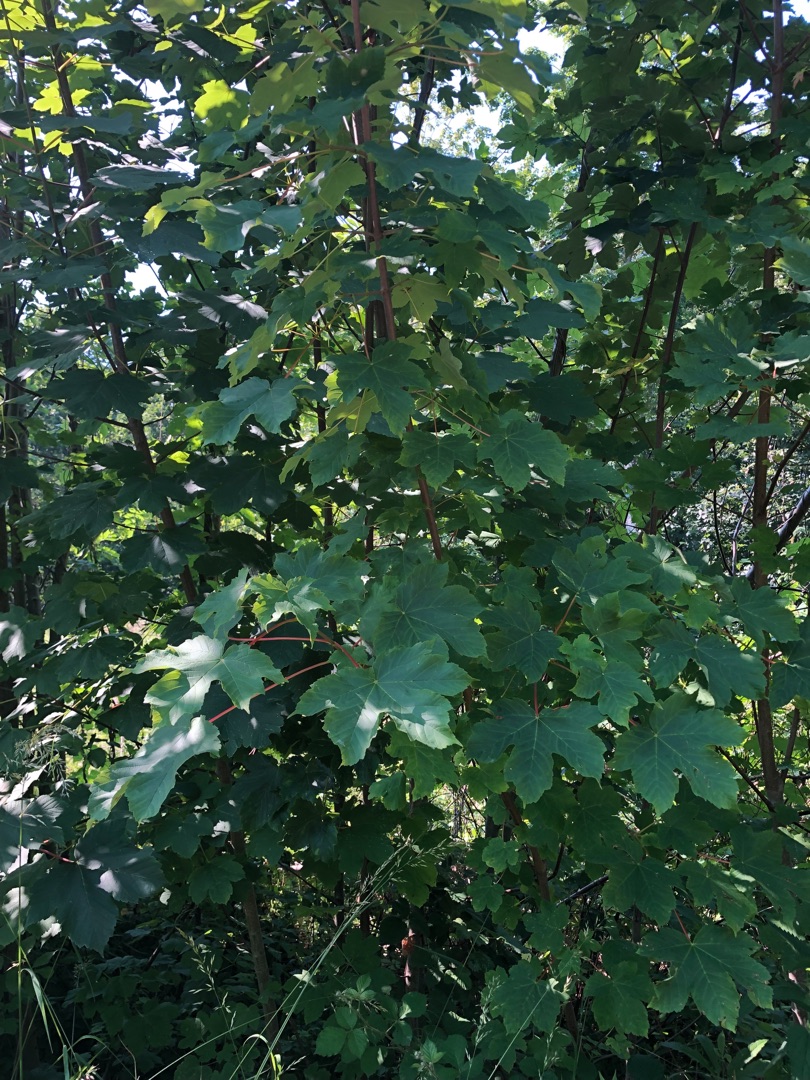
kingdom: Plantae
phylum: Tracheophyta
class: Magnoliopsida
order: Sapindales
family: Sapindaceae
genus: Acer
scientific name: Acer pseudoplatanus
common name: Ahorn
